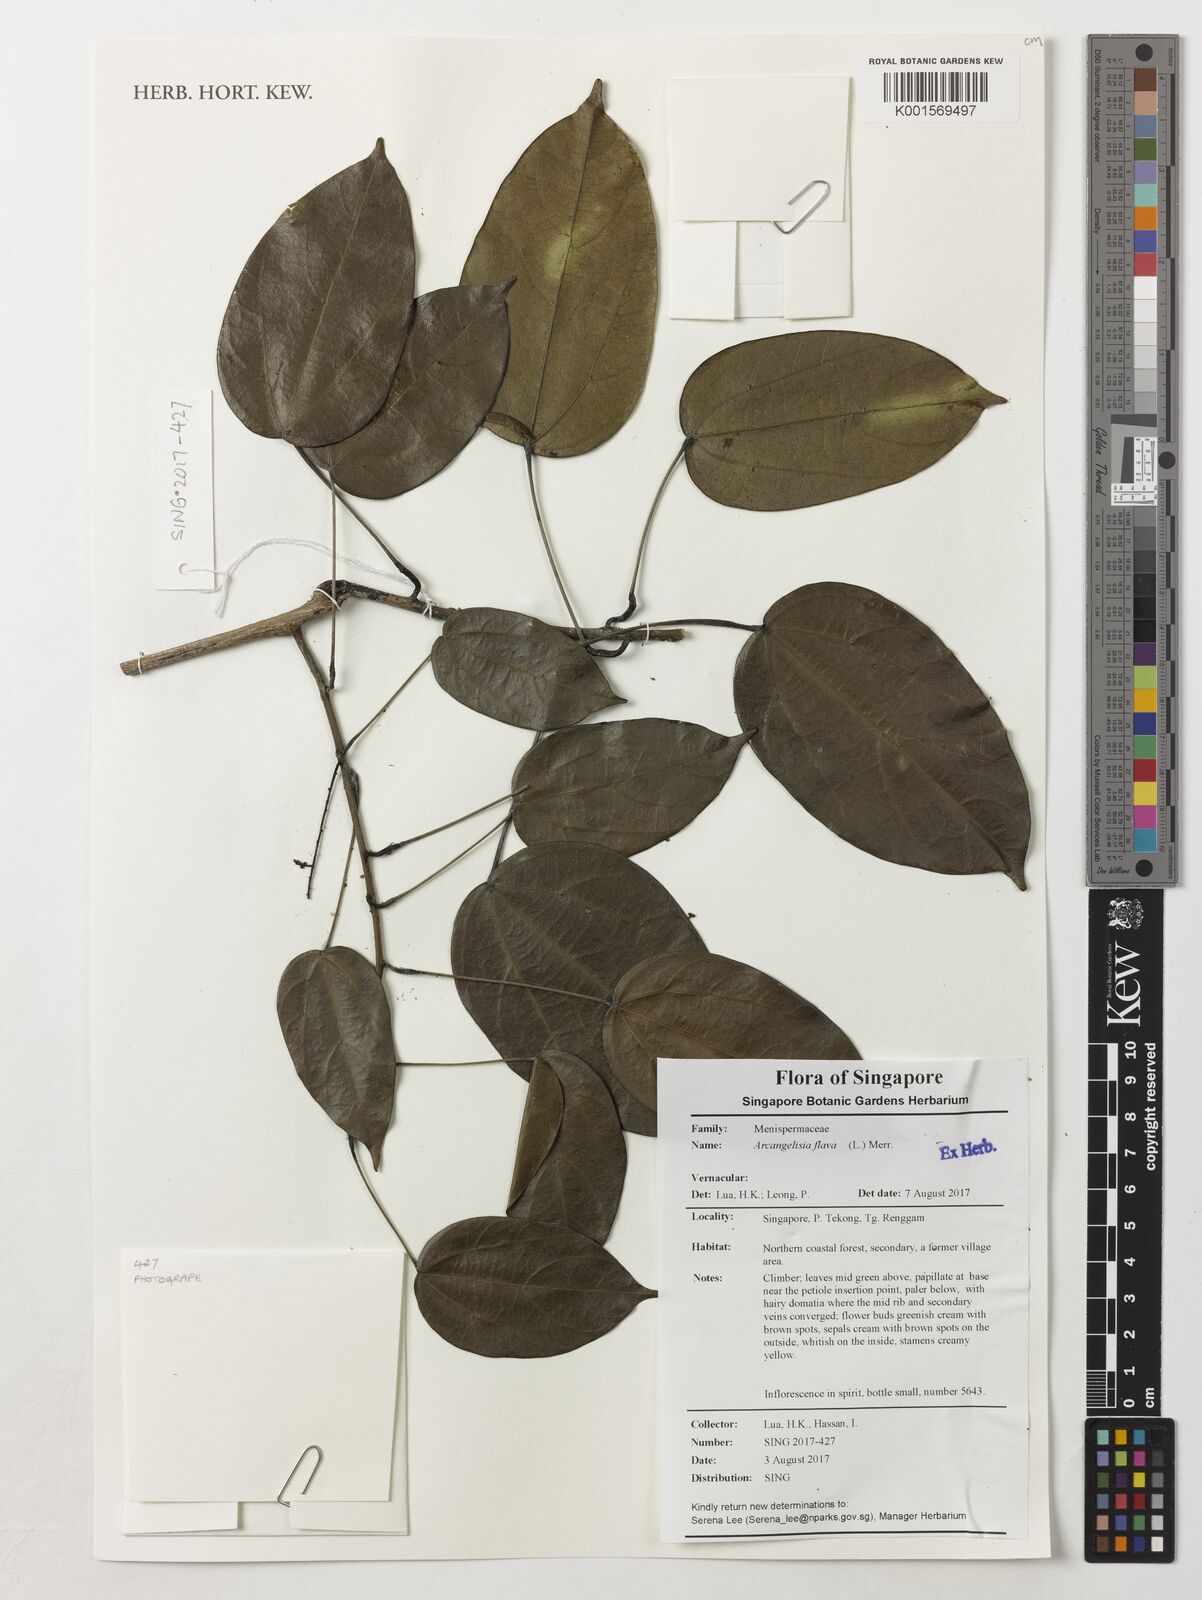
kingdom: Plantae
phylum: Tracheophyta
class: Magnoliopsida
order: Ranunculales
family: Menispermaceae
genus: Arcangelisia
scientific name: Arcangelisia flava
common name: Yellow-fruit moonseed
